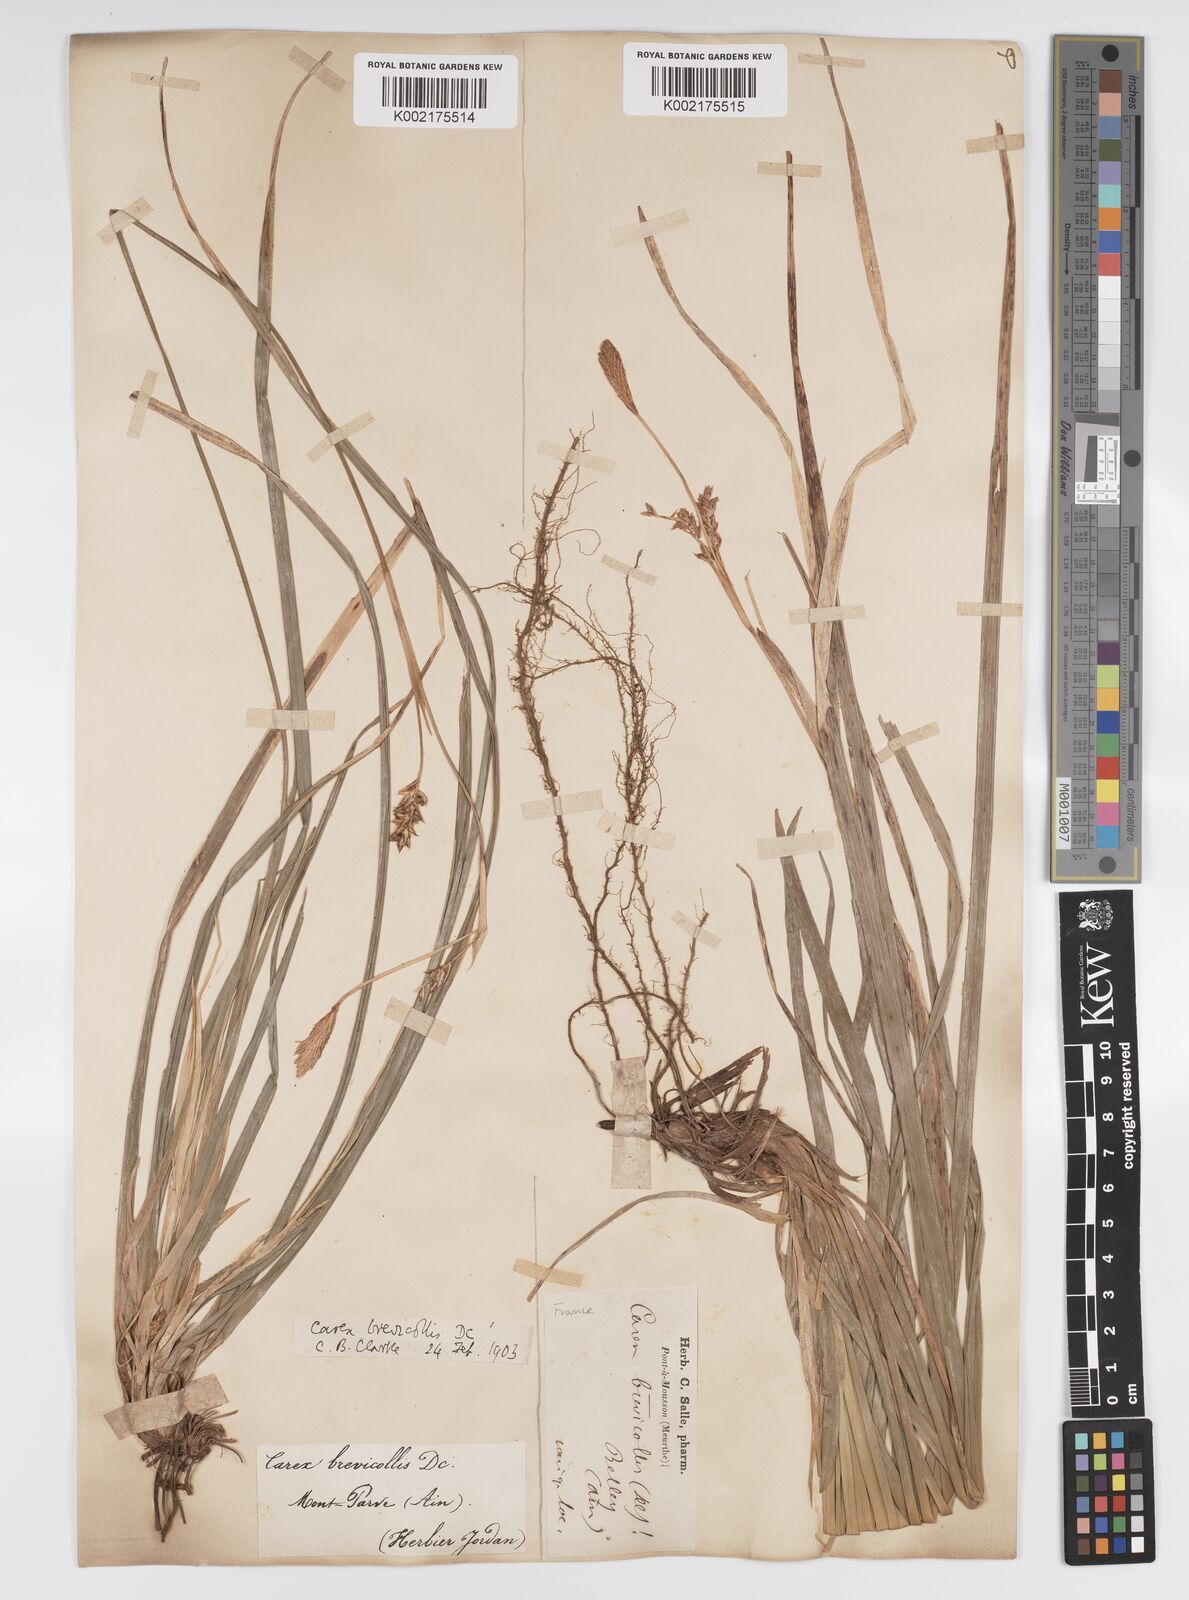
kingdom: Plantae
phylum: Tracheophyta
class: Liliopsida
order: Poales
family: Cyperaceae
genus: Carex
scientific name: Carex brevicollis
